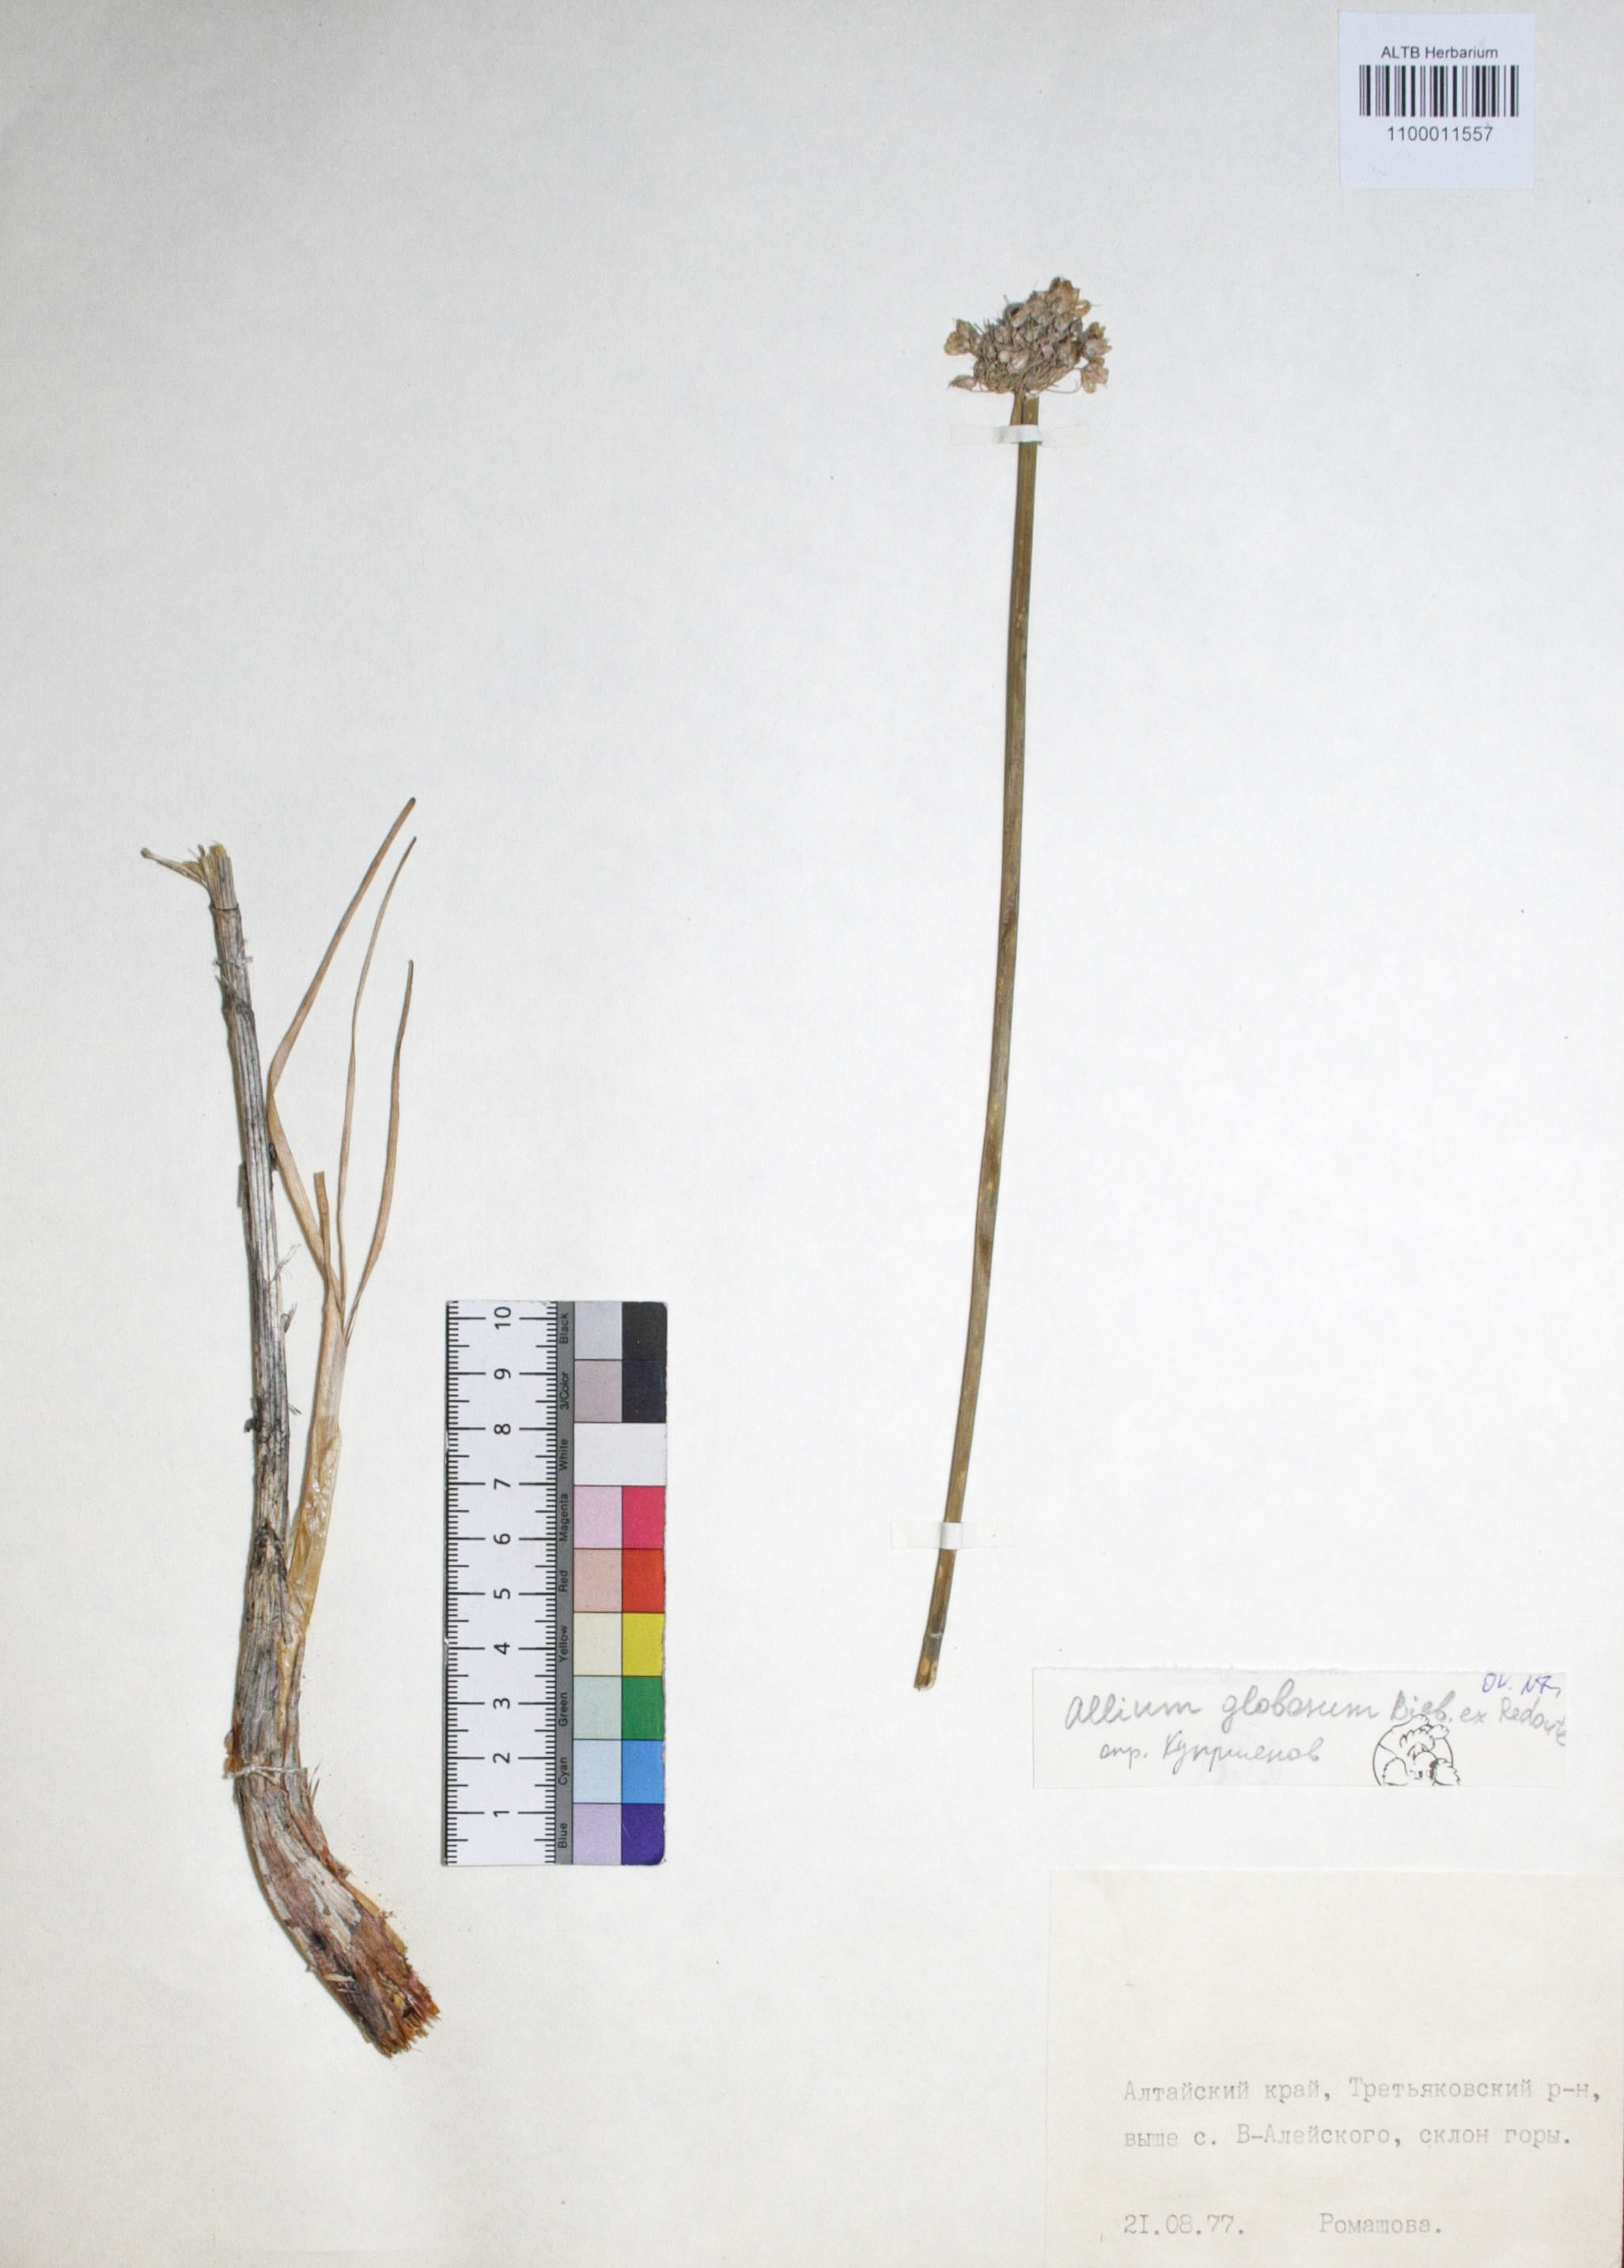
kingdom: Plantae
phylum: Tracheophyta
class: Liliopsida
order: Asparagales
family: Amaryllidaceae
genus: Allium
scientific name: Allium saxatile
